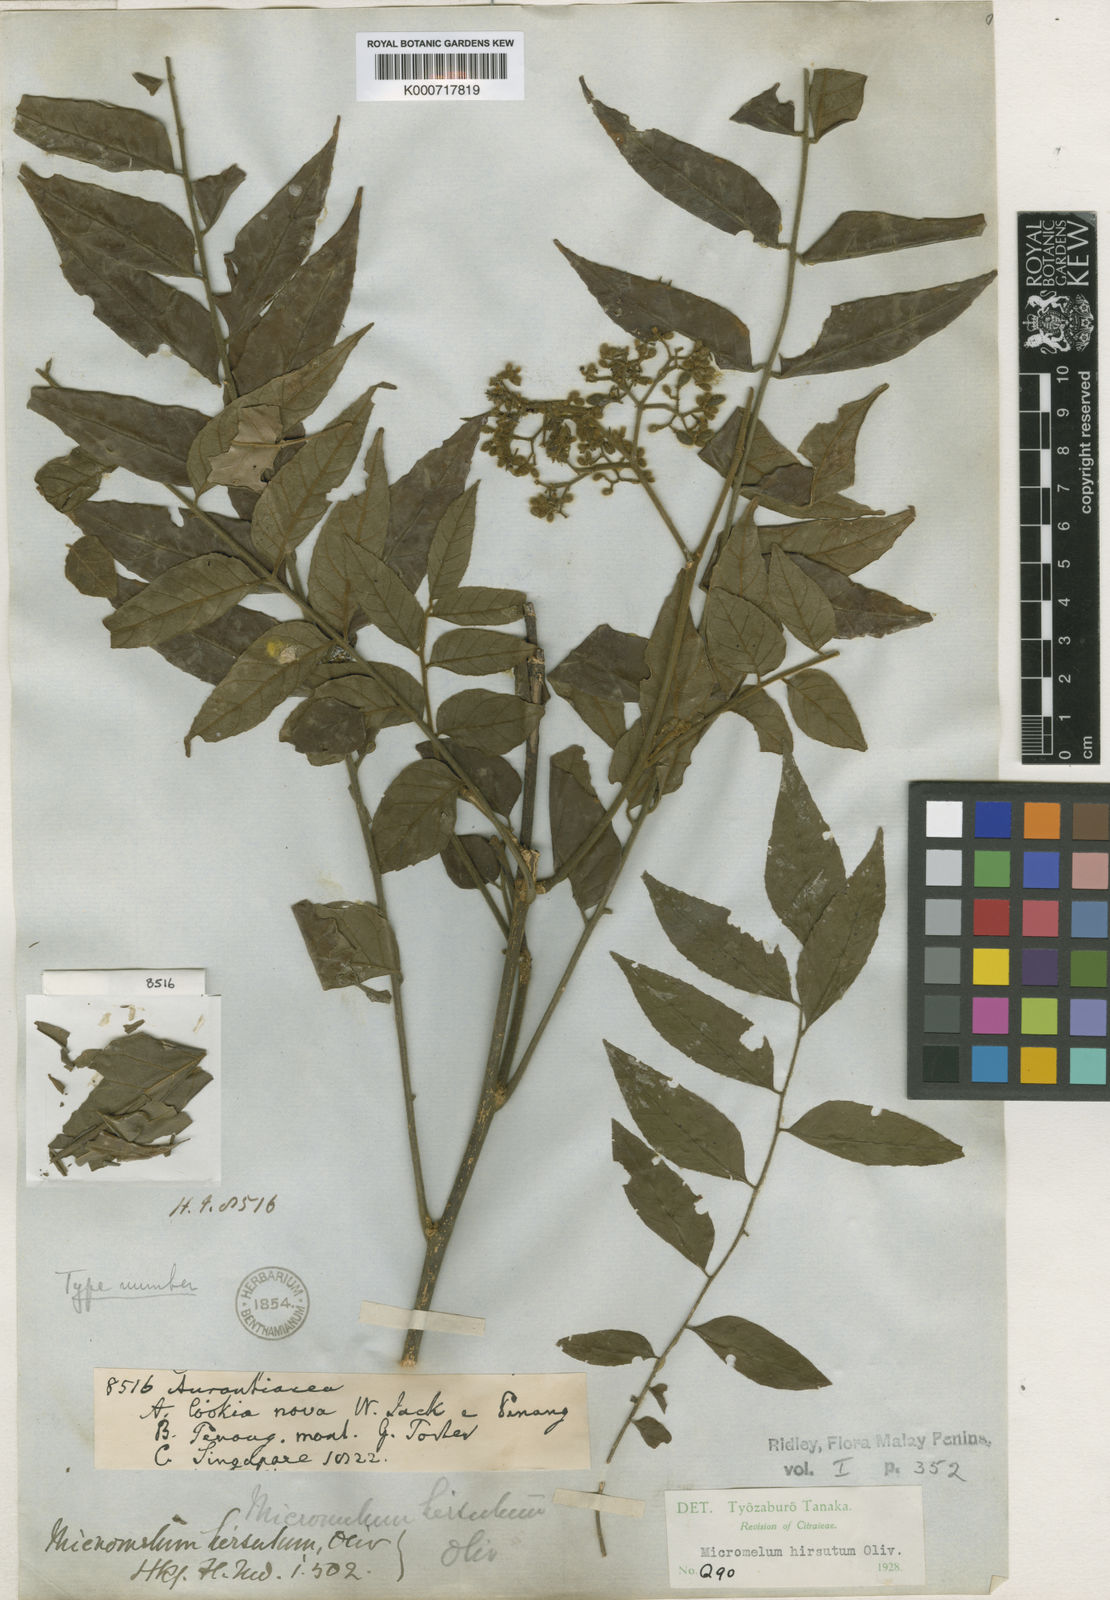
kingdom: Plantae
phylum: Tracheophyta
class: Magnoliopsida
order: Sapindales
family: Rutaceae
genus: Micromelum
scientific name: Micromelum hirsutum
